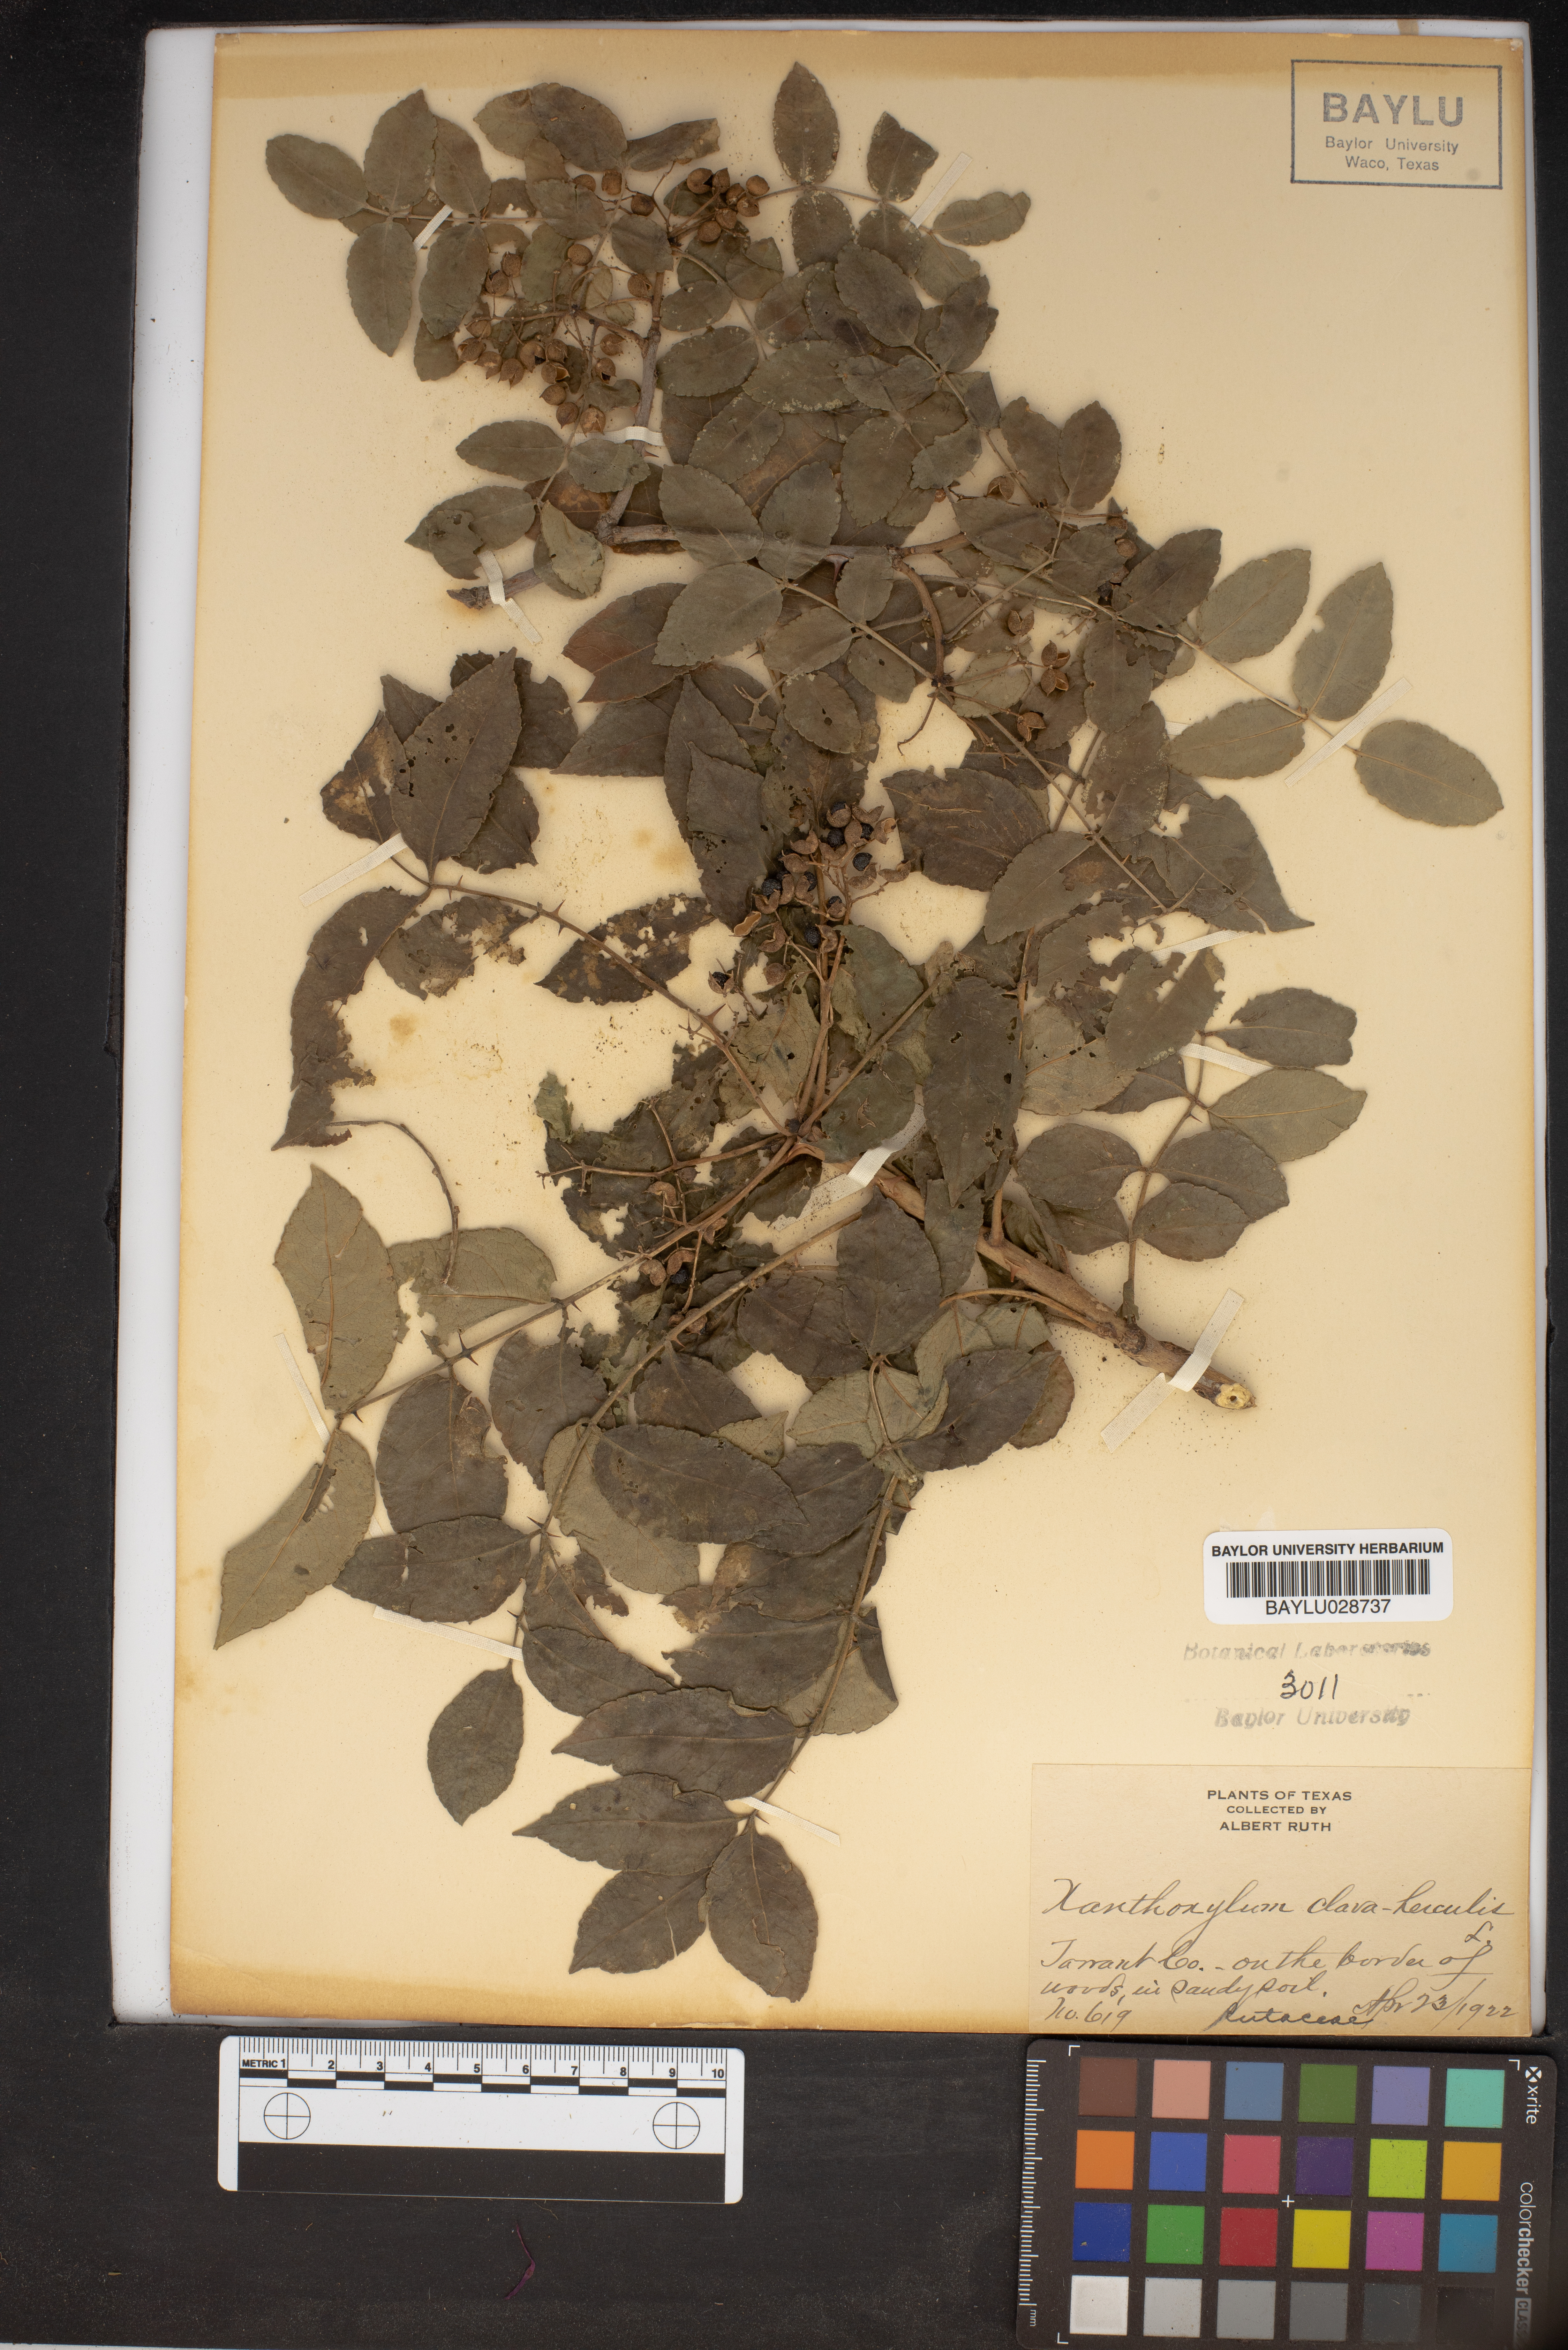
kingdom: Plantae
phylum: Tracheophyta
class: Magnoliopsida
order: Sapindales
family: Rutaceae
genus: Zanthoxylum
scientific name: Zanthoxylum
